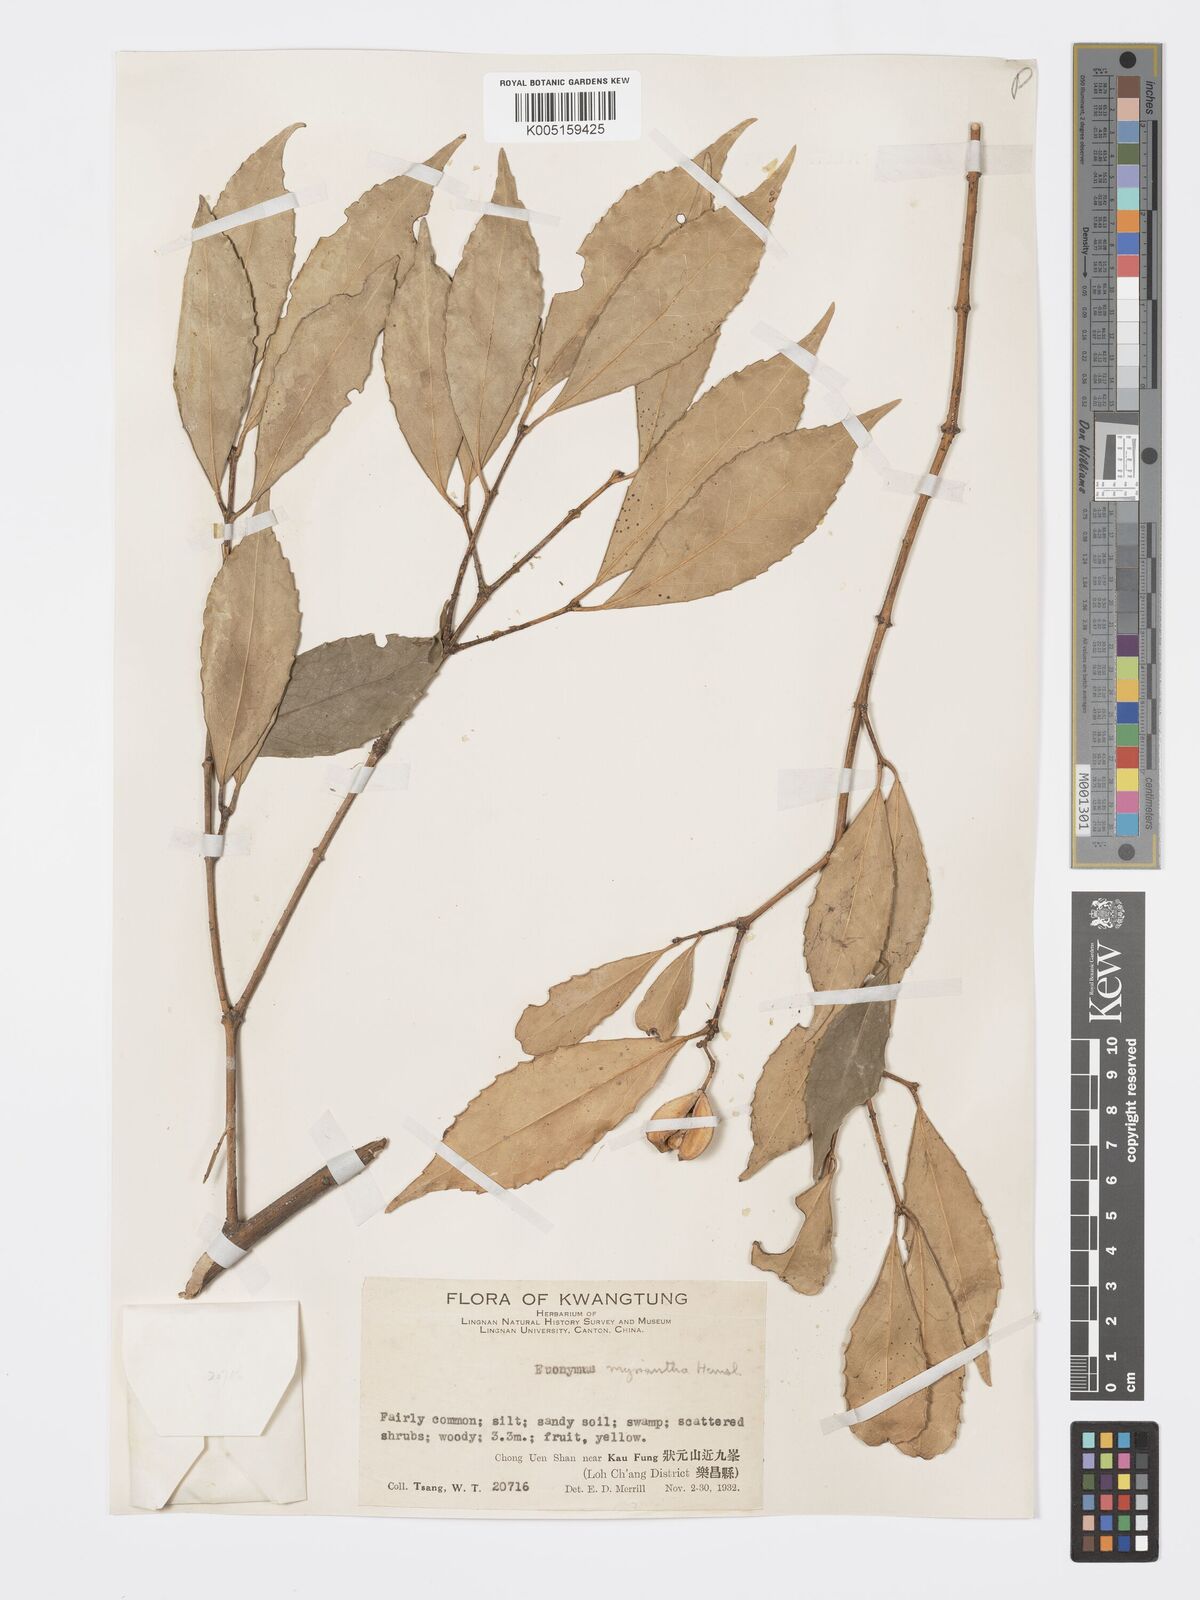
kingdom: Plantae
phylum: Tracheophyta
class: Magnoliopsida
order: Celastrales
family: Celastraceae
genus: Euonymus
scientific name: Euonymus myrianthus
